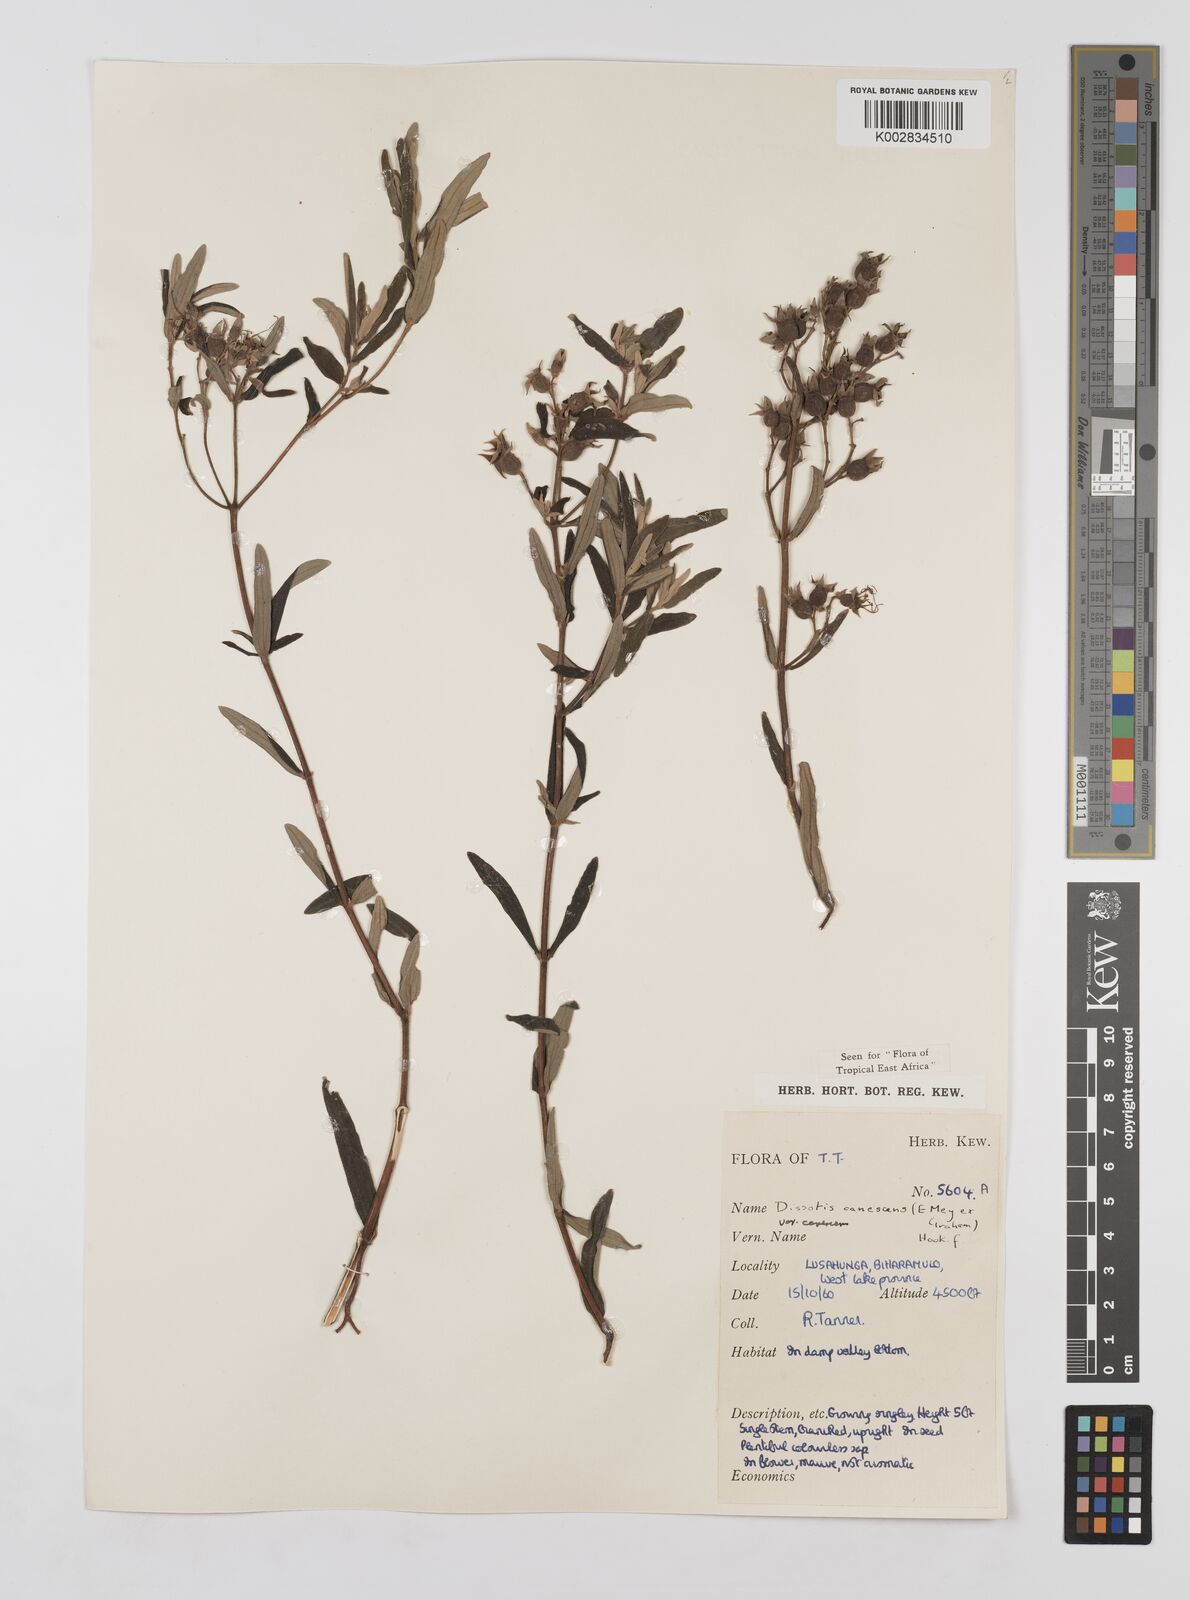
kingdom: Plantae
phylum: Tracheophyta
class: Magnoliopsida
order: Myrtales
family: Melastomataceae
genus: Argyrella
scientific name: Argyrella canescens
